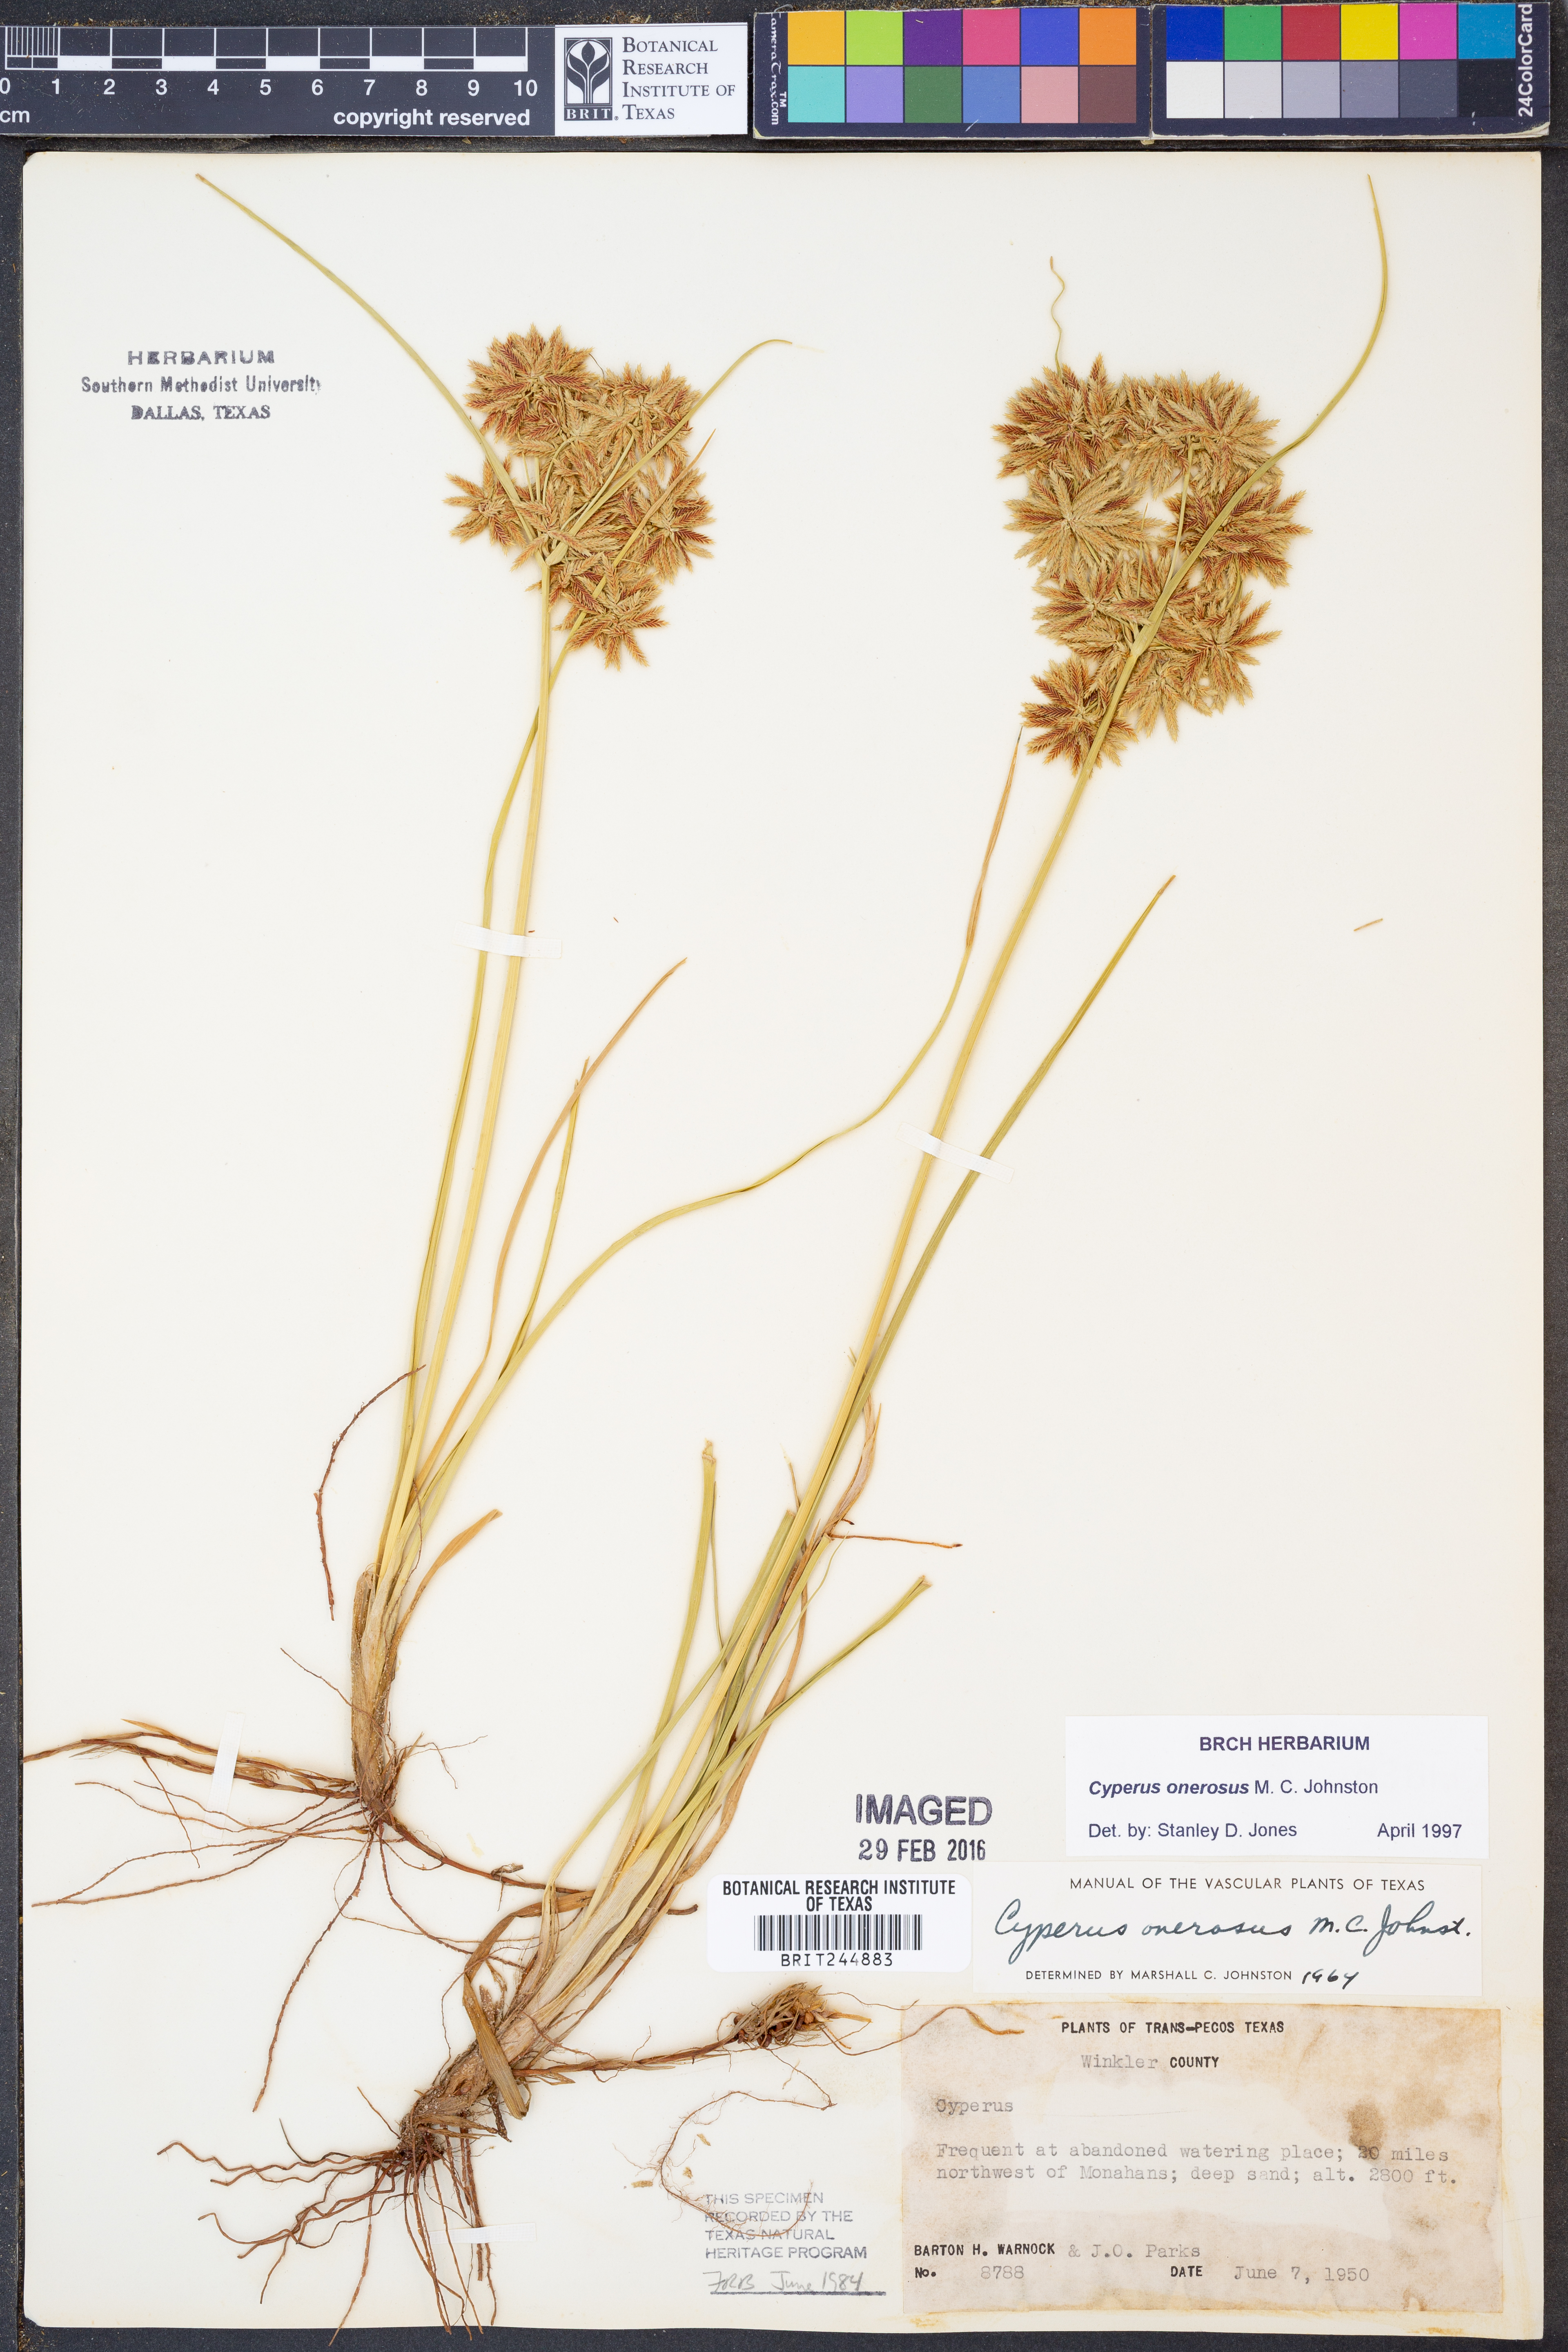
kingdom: Plantae
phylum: Tracheophyta
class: Liliopsida
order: Poales
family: Cyperaceae
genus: Cyperus
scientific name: Cyperus onerosus
